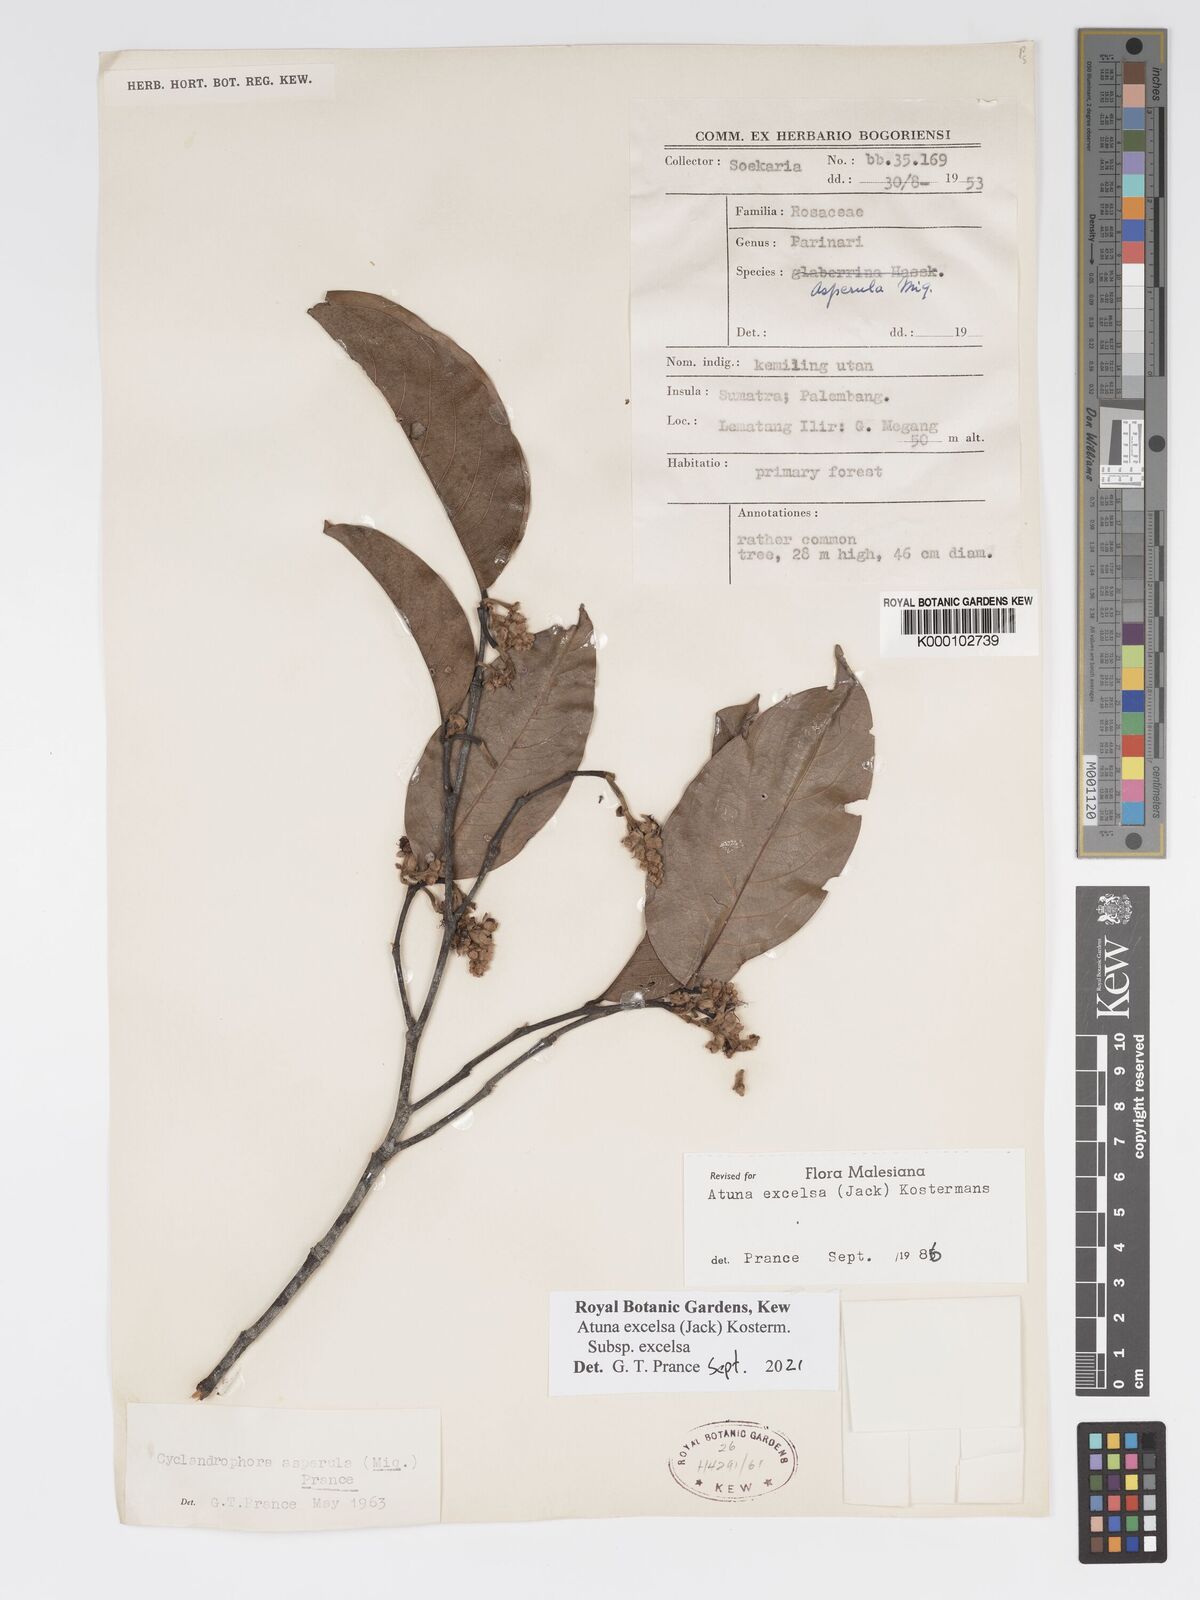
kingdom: Plantae
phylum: Tracheophyta
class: Magnoliopsida
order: Malpighiales
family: Chrysobalanaceae
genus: Atuna
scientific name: Atuna excelsa
